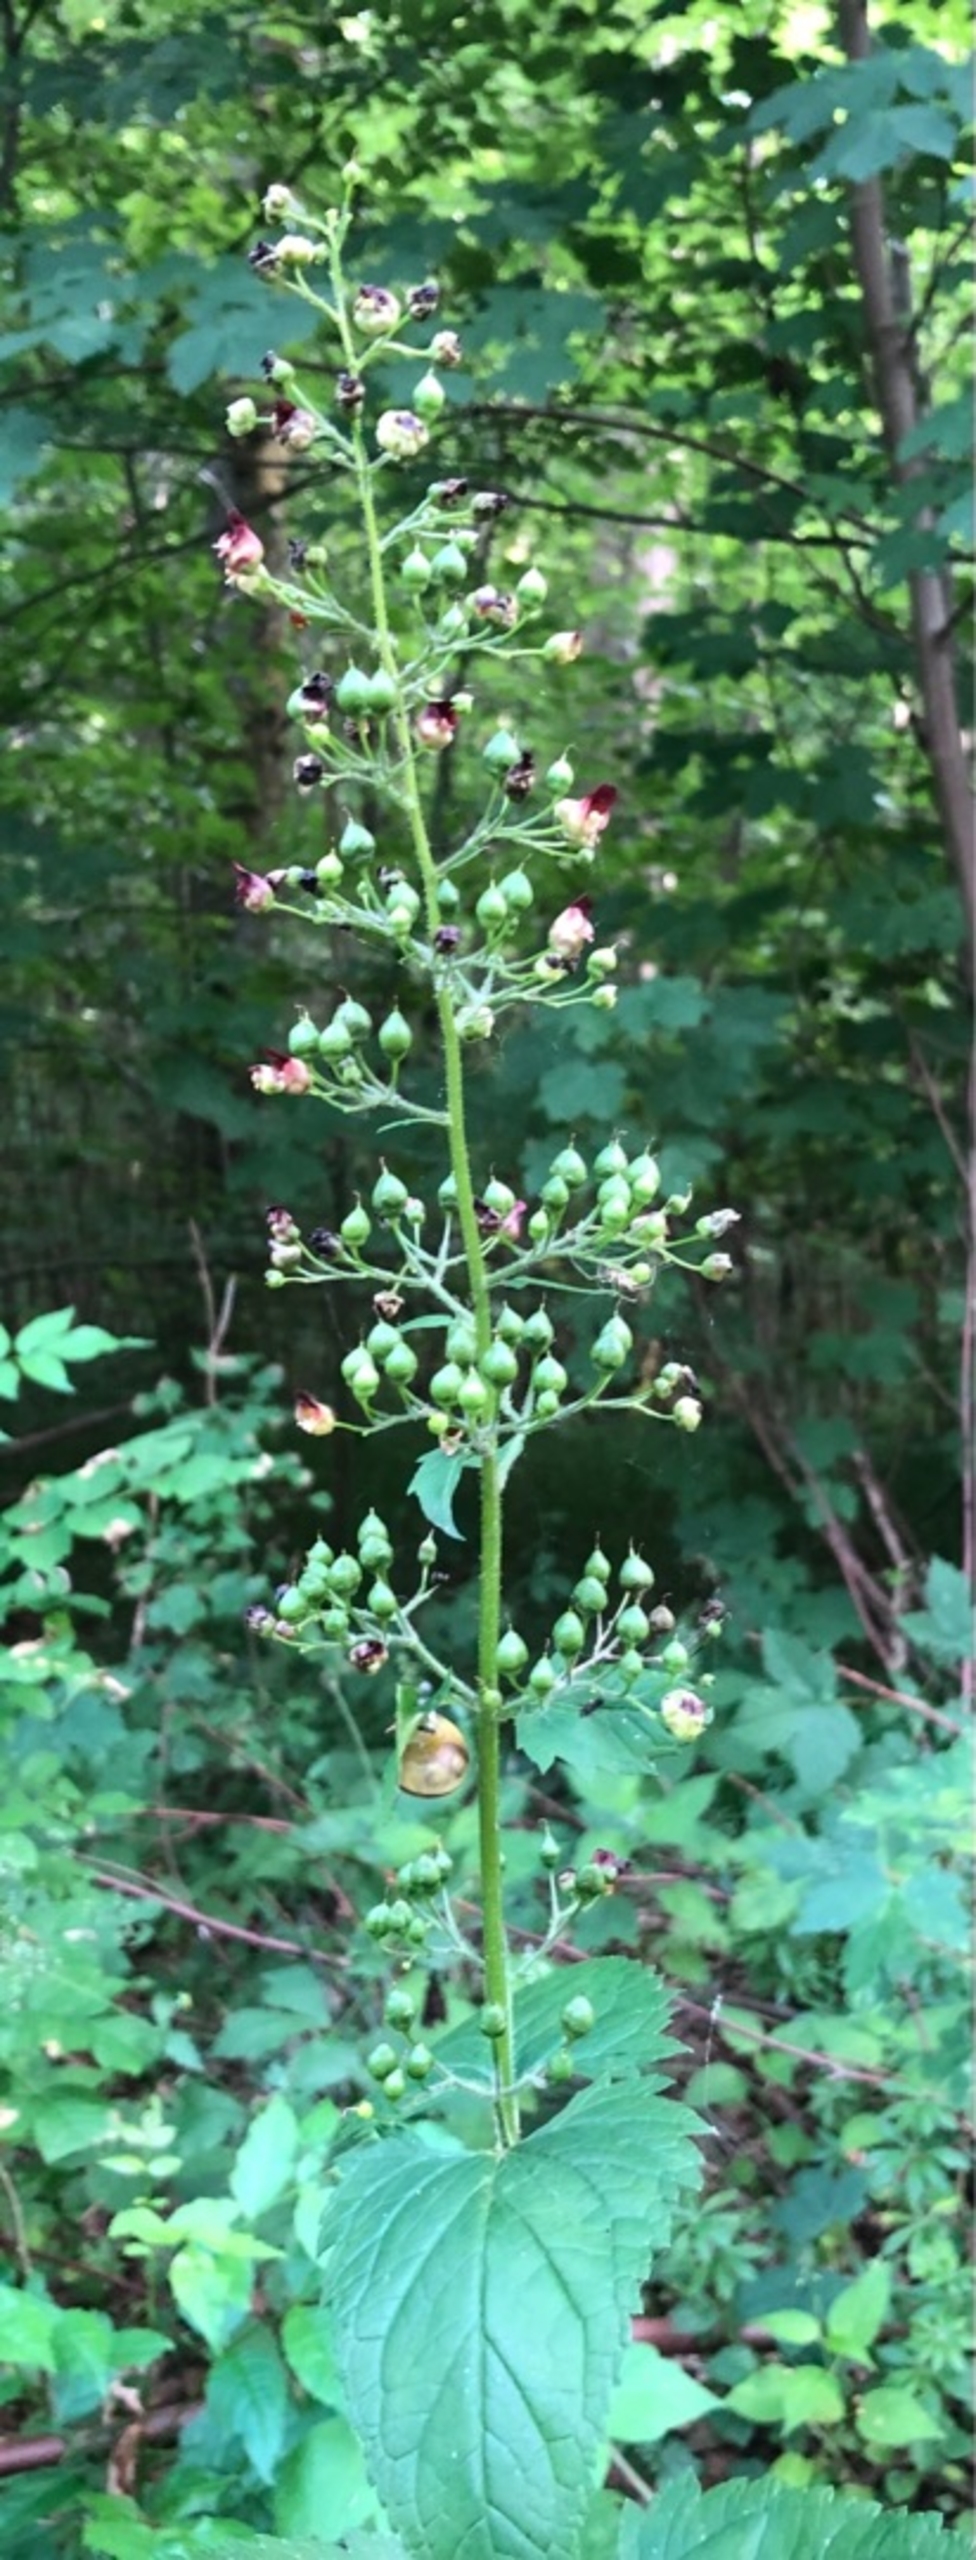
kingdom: Plantae
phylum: Tracheophyta
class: Magnoliopsida
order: Lamiales
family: Scrophulariaceae
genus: Scrophularia
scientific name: Scrophularia nodosa
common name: Knoldet brunrod
